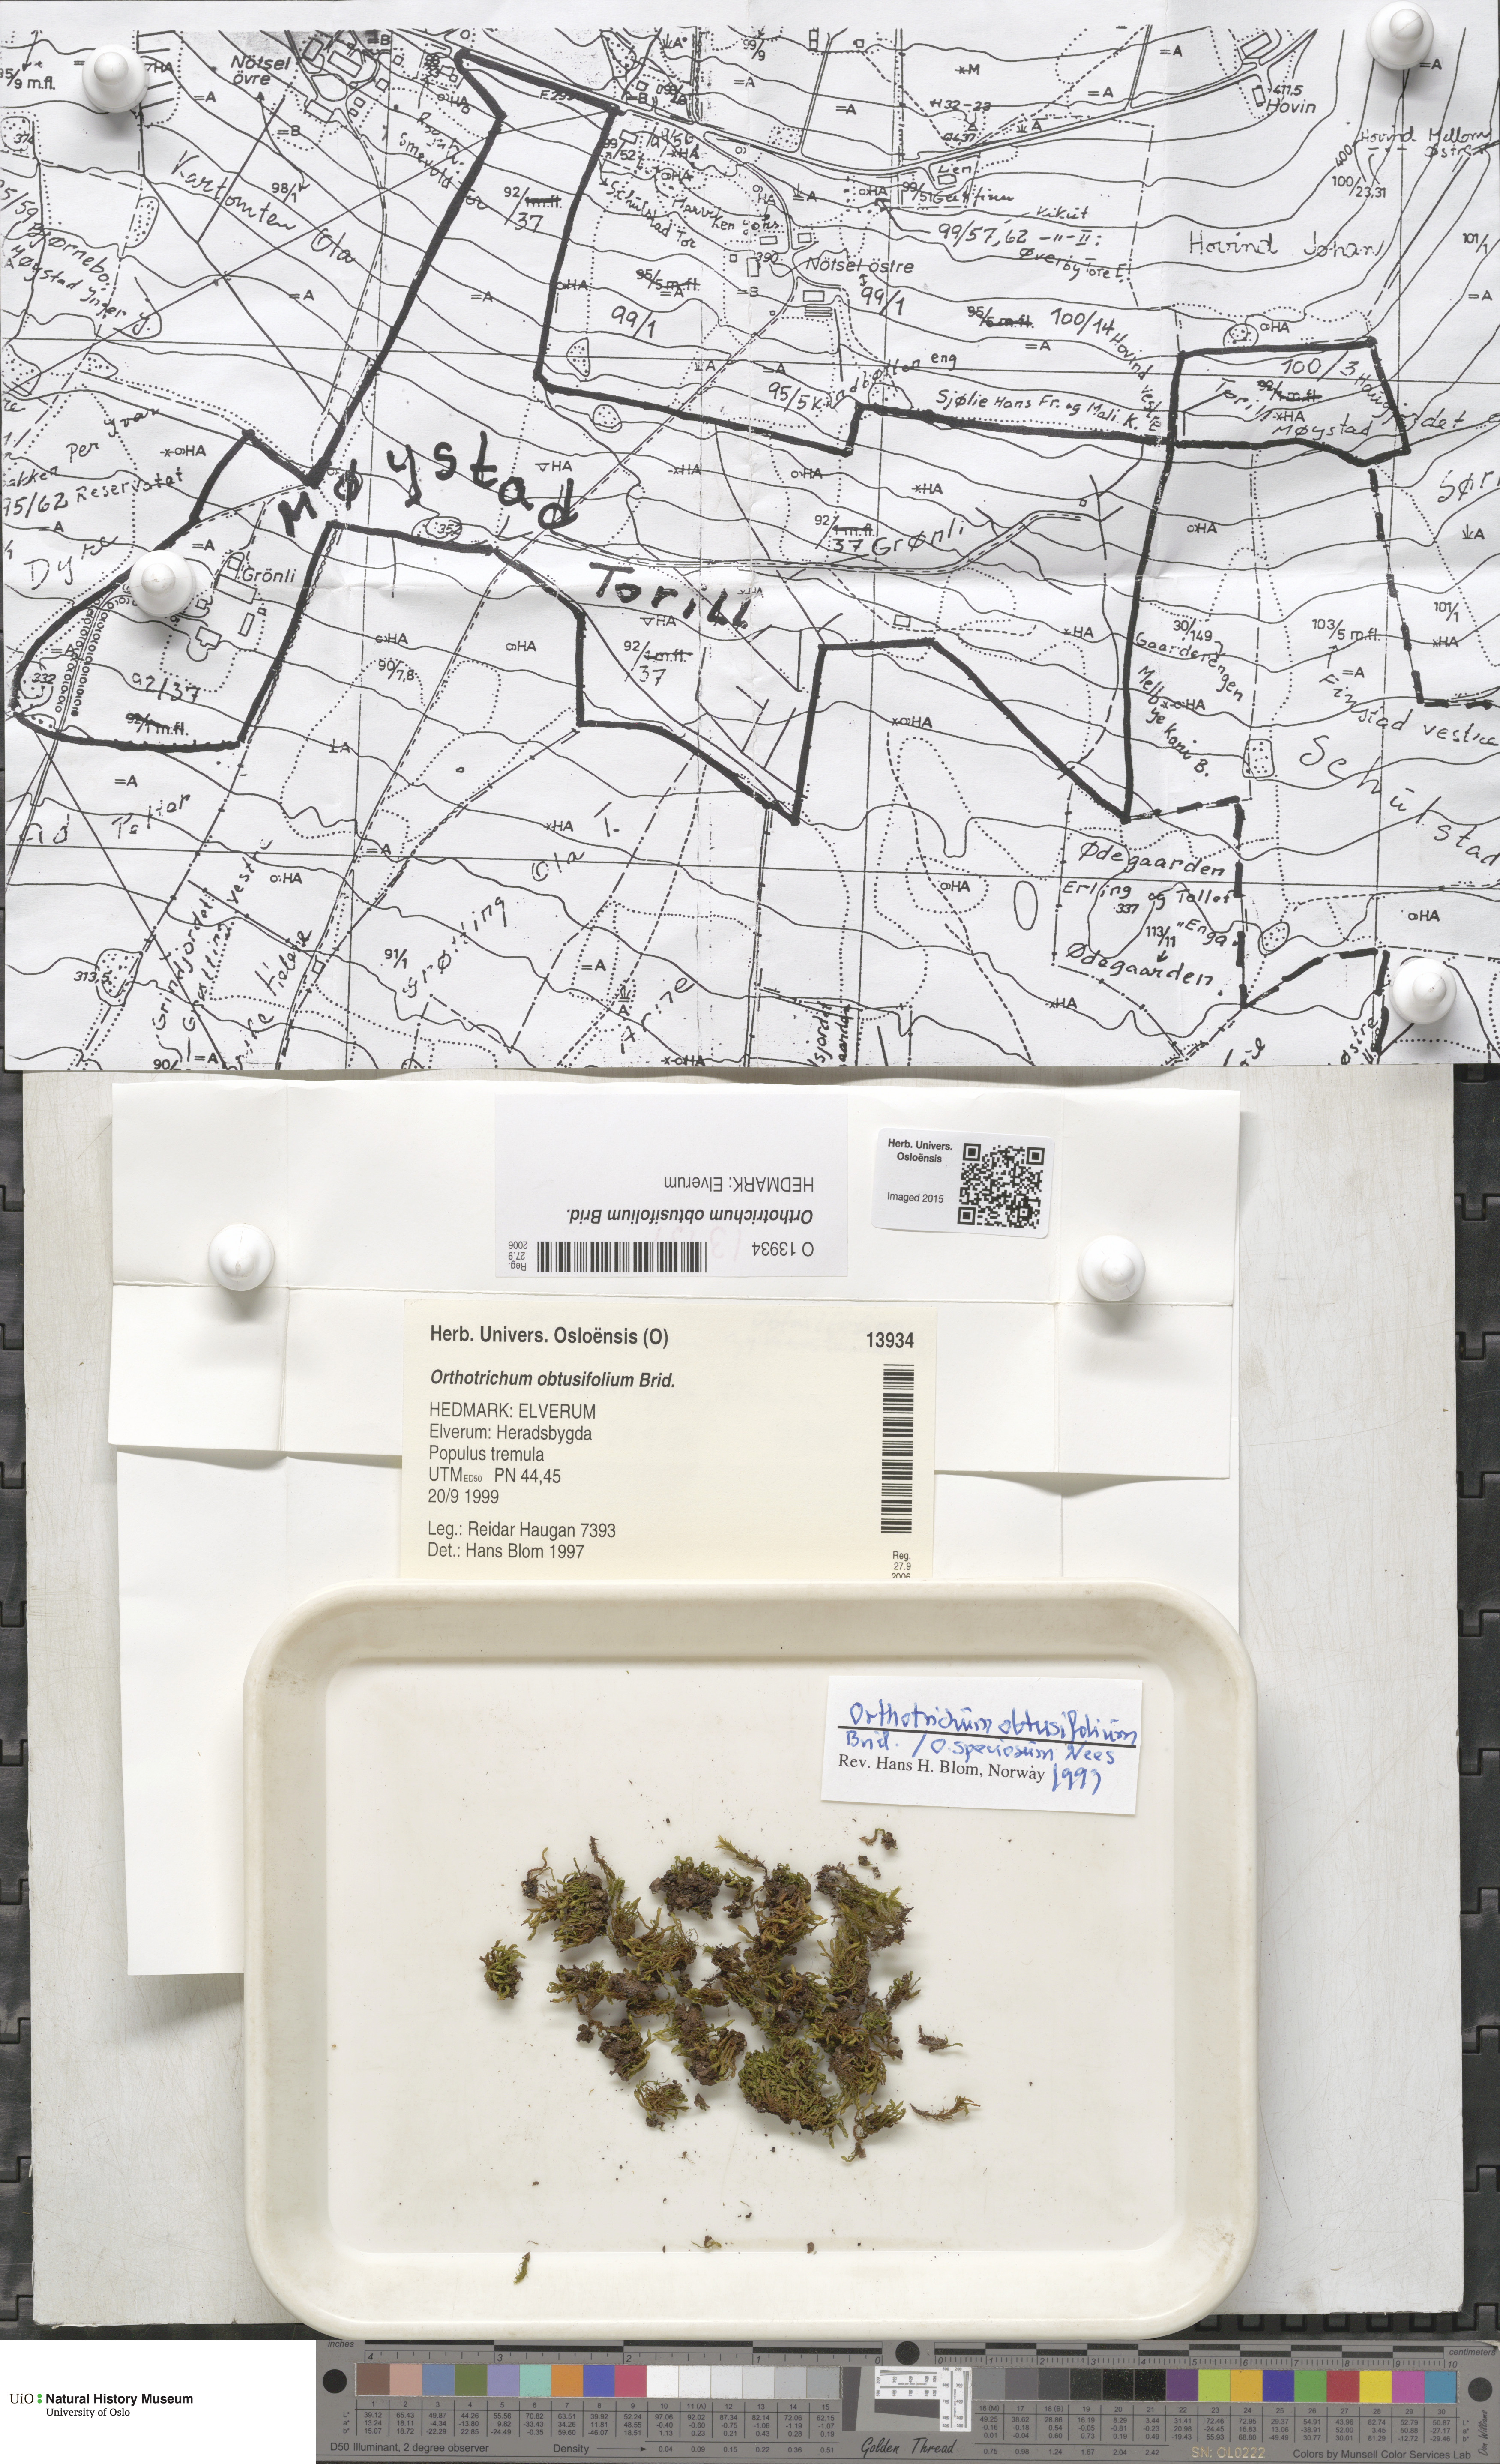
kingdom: Plantae
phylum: Bryophyta
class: Bryopsida
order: Orthotrichales
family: Orthotrichaceae
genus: Nyholmiella
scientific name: Nyholmiella obtusifolia
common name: Blunt-leaved bristle-moss
